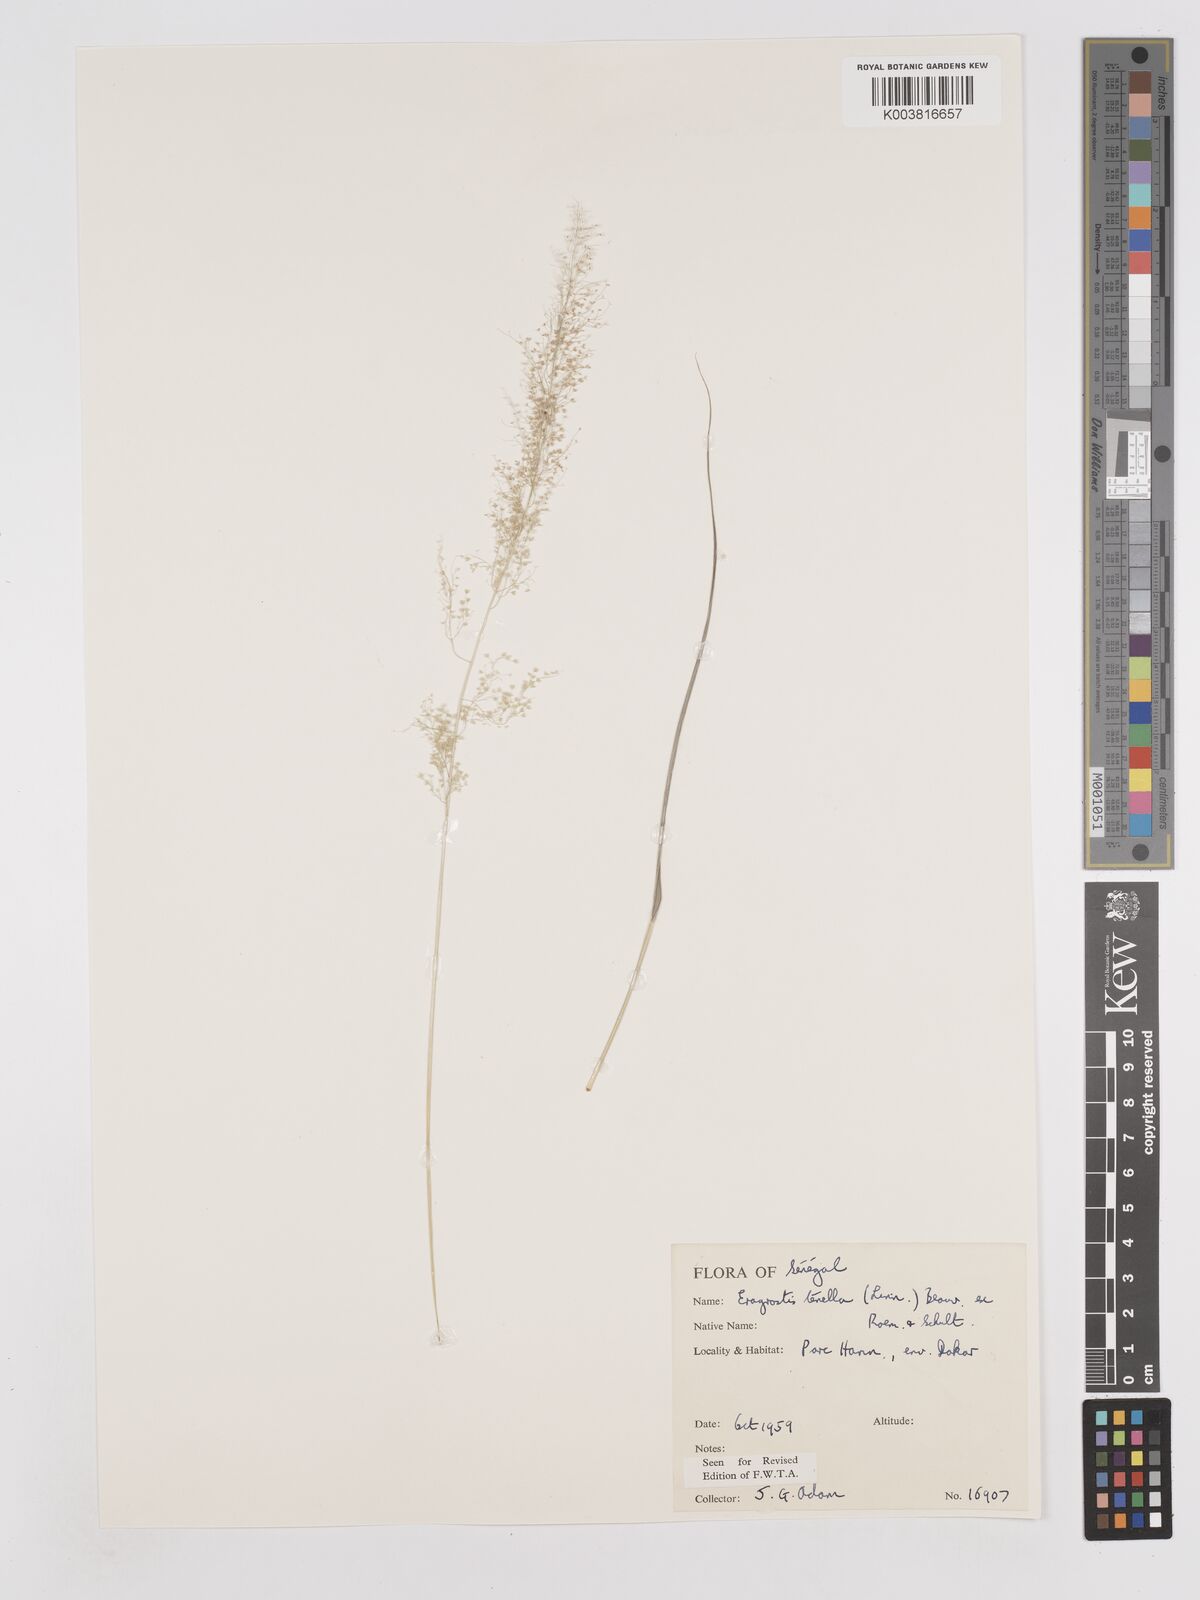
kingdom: Plantae
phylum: Tracheophyta
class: Liliopsida
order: Poales
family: Poaceae
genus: Eragrostis
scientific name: Eragrostis tenella
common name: Japanese lovegrass
